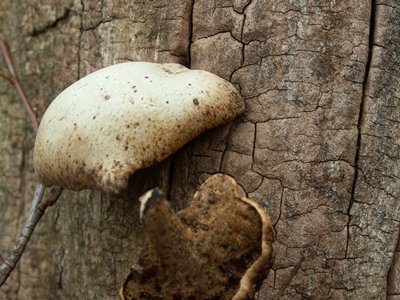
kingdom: Fungi
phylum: Basidiomycota
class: Agaricomycetes
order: Polyporales
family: Polyporaceae
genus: Cerioporus
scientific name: Cerioporus varius
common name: foranderlig stilkporesvamp
